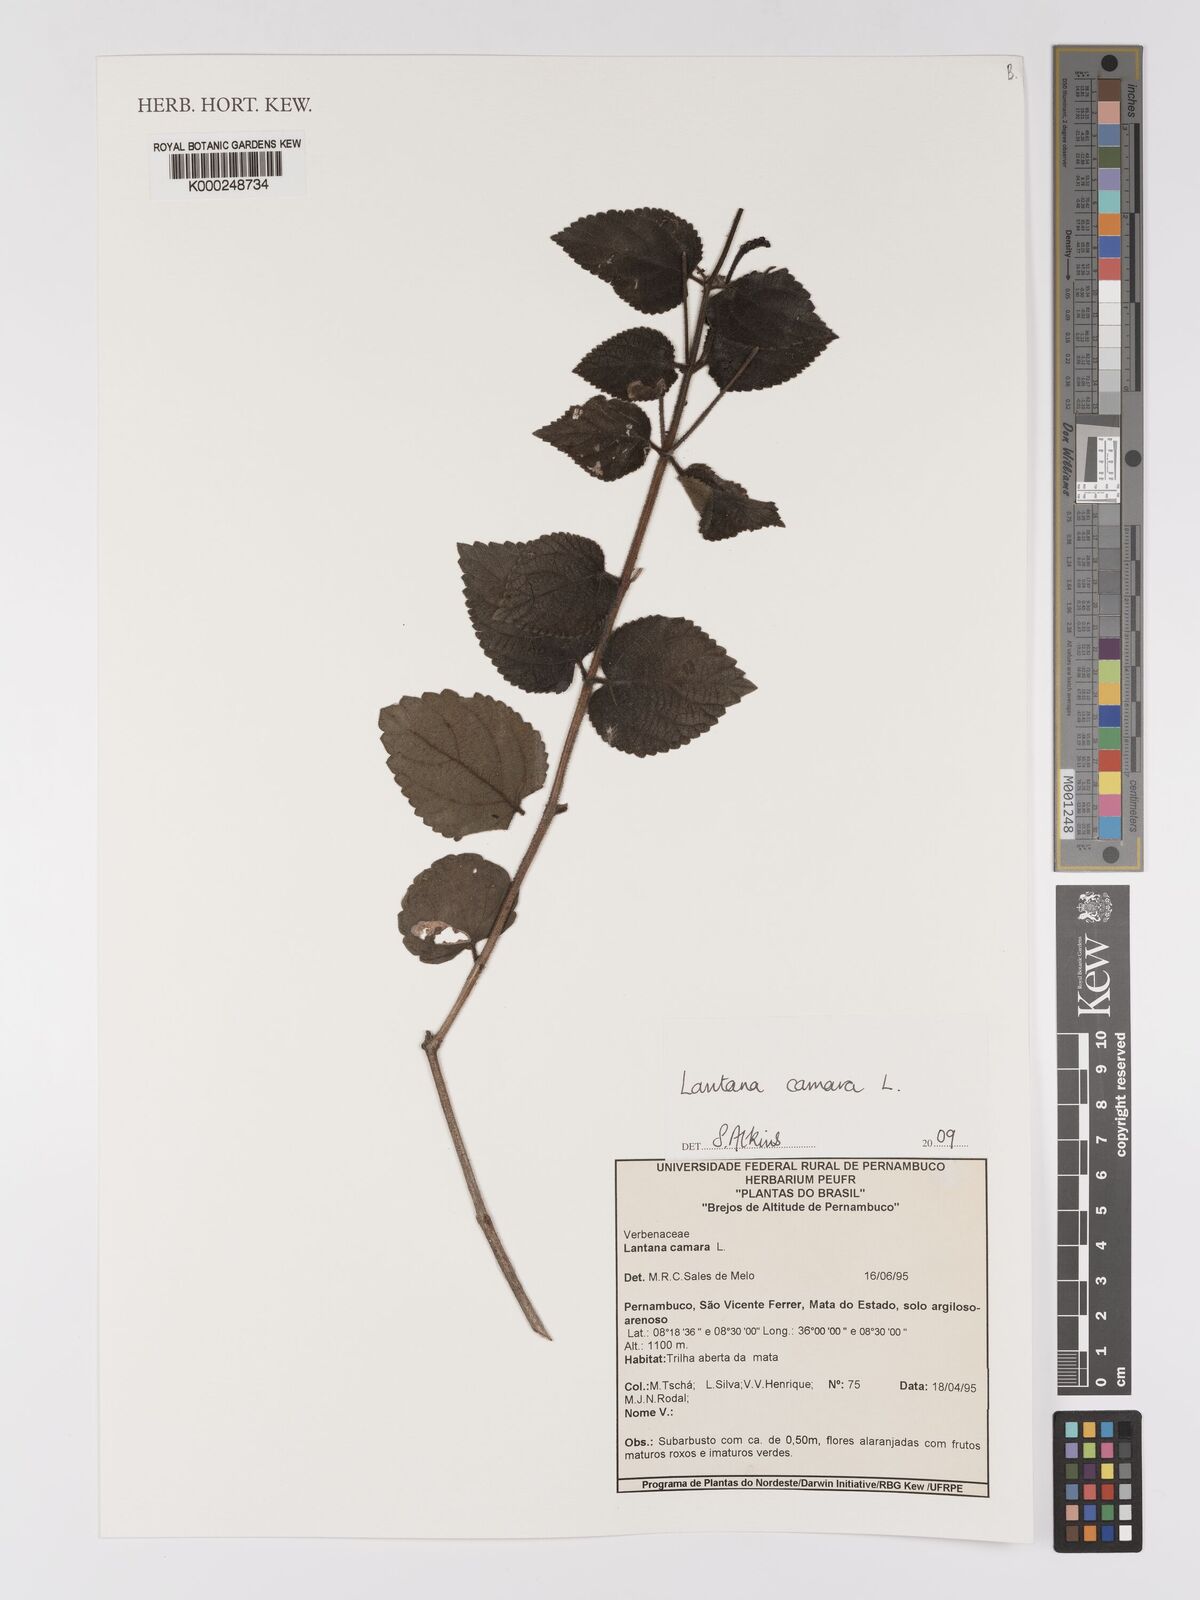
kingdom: Plantae
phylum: Tracheophyta
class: Magnoliopsida
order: Lamiales
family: Verbenaceae
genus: Lantana
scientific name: Lantana camara
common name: Lantana
